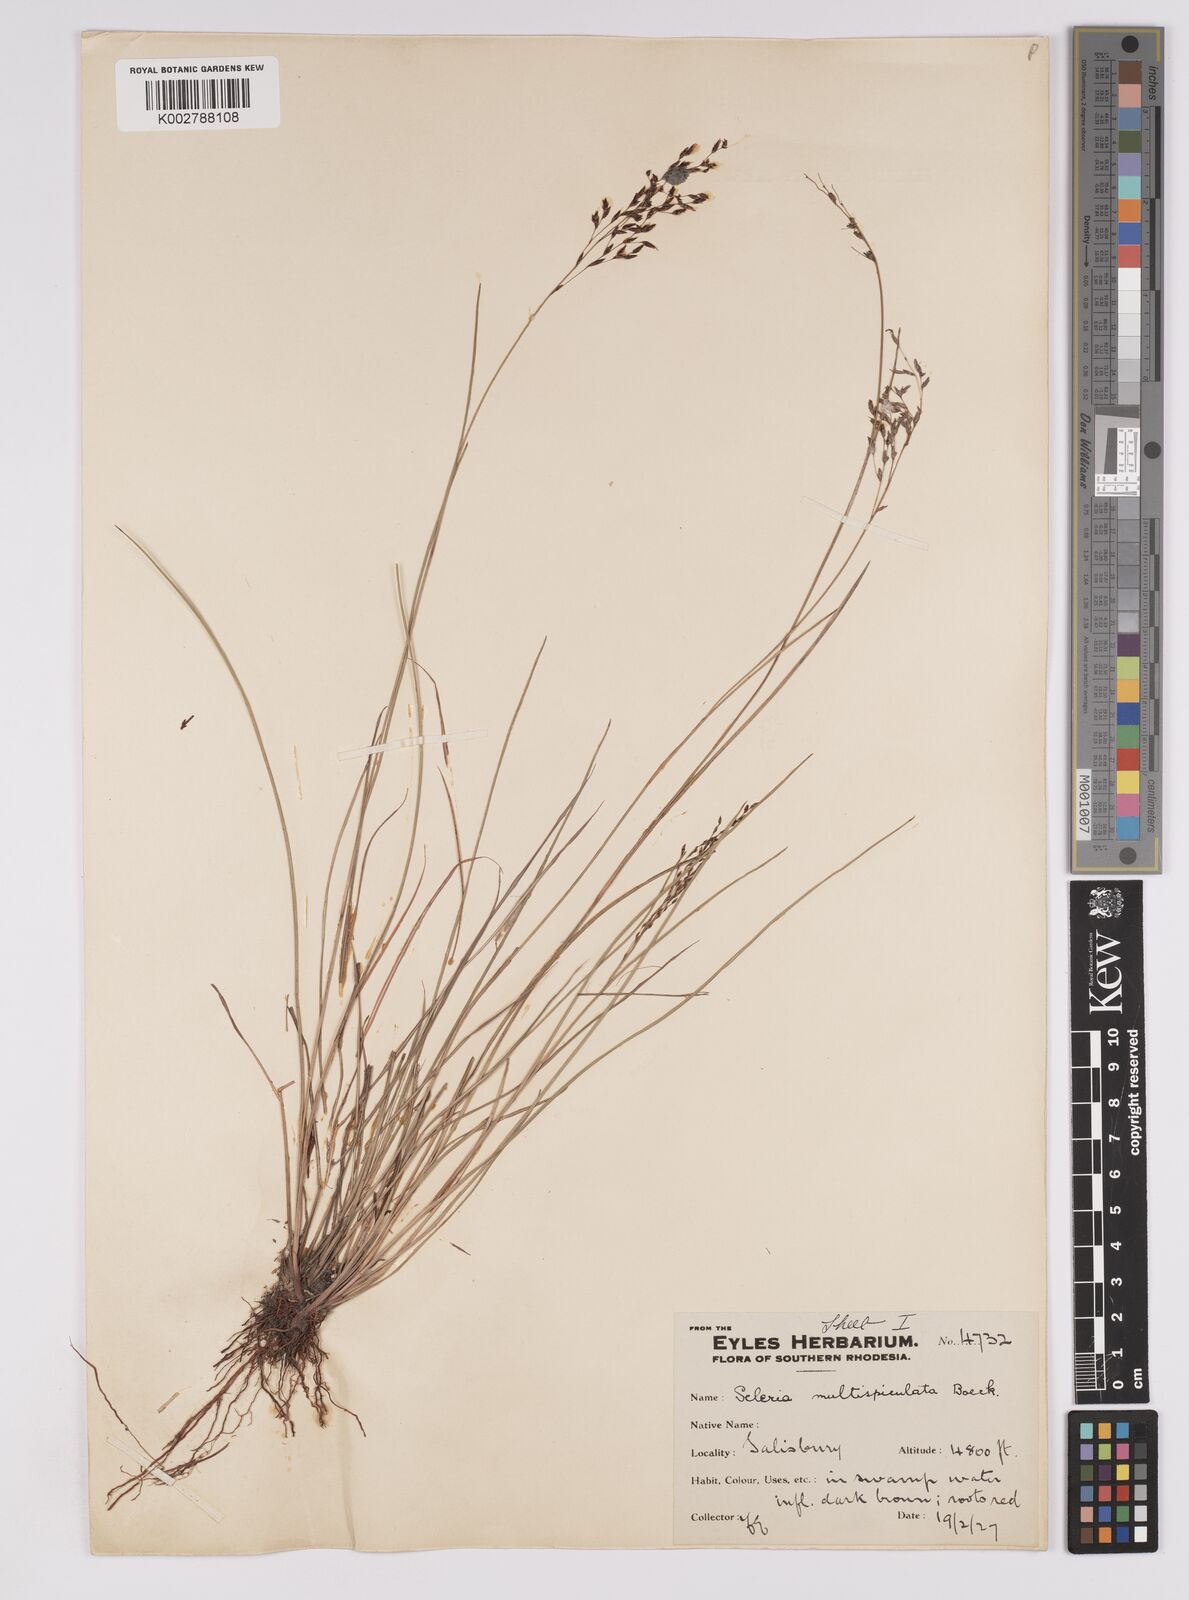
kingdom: Plantae
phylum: Tracheophyta
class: Liliopsida
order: Poales
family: Cyperaceae
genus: Scleria
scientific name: Scleria pooides
